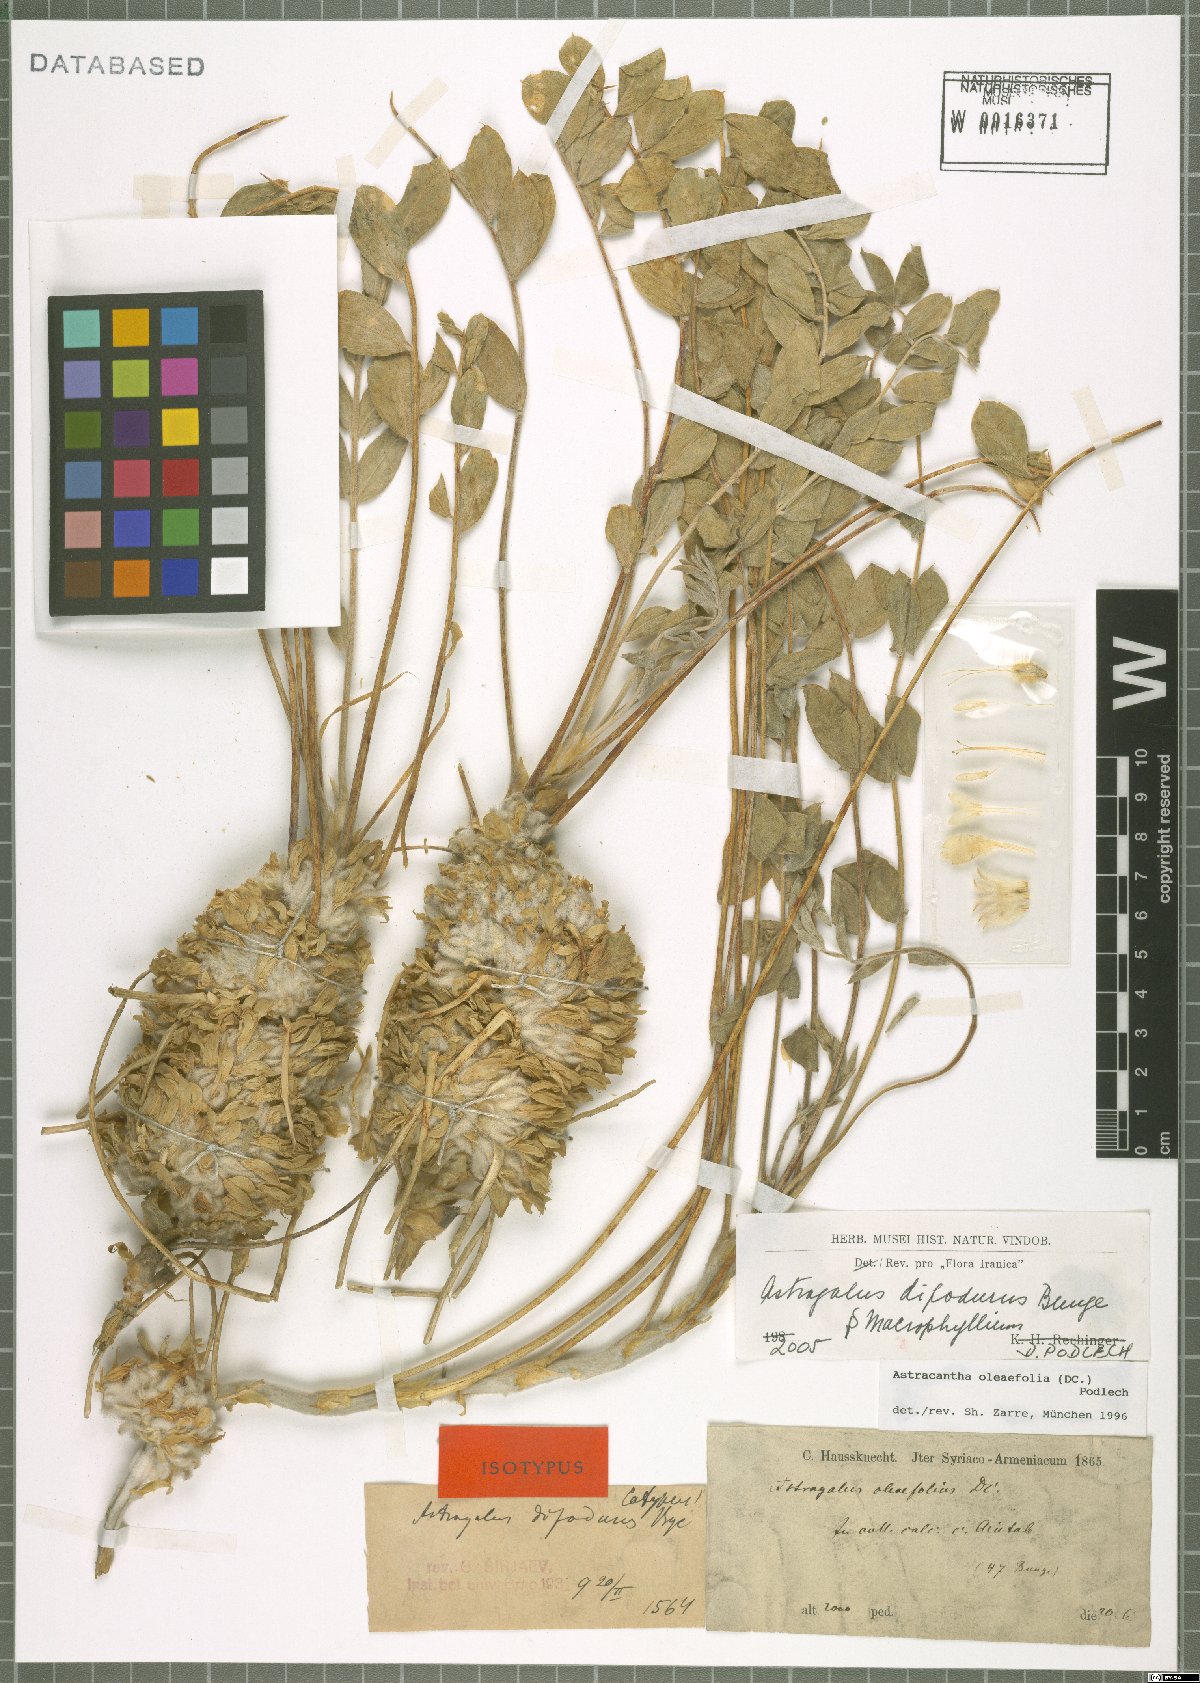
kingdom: Plantae
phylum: Tracheophyta
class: Magnoliopsida
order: Fabales
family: Fabaceae
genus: Astragalus
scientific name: Astragalus dipodurus
